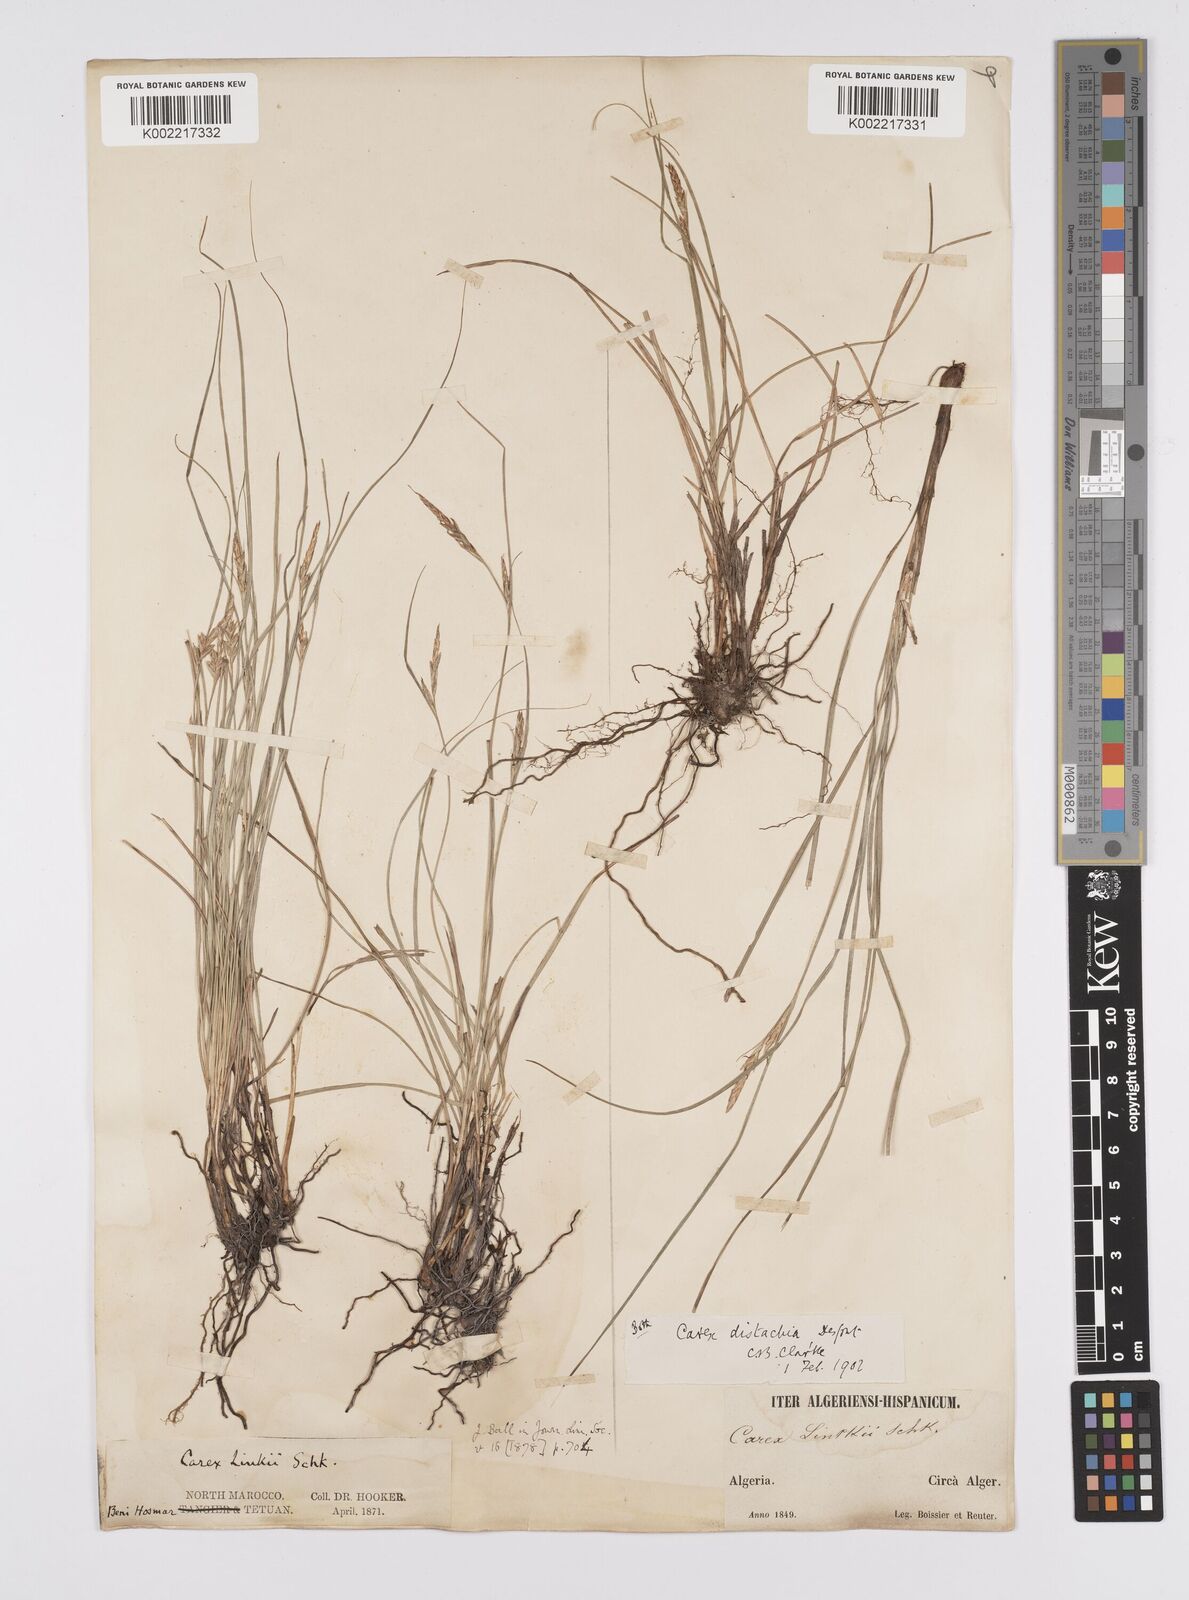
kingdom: Plantae
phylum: Tracheophyta
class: Liliopsida
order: Poales
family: Cyperaceae
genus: Carex
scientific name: Carex distachya
